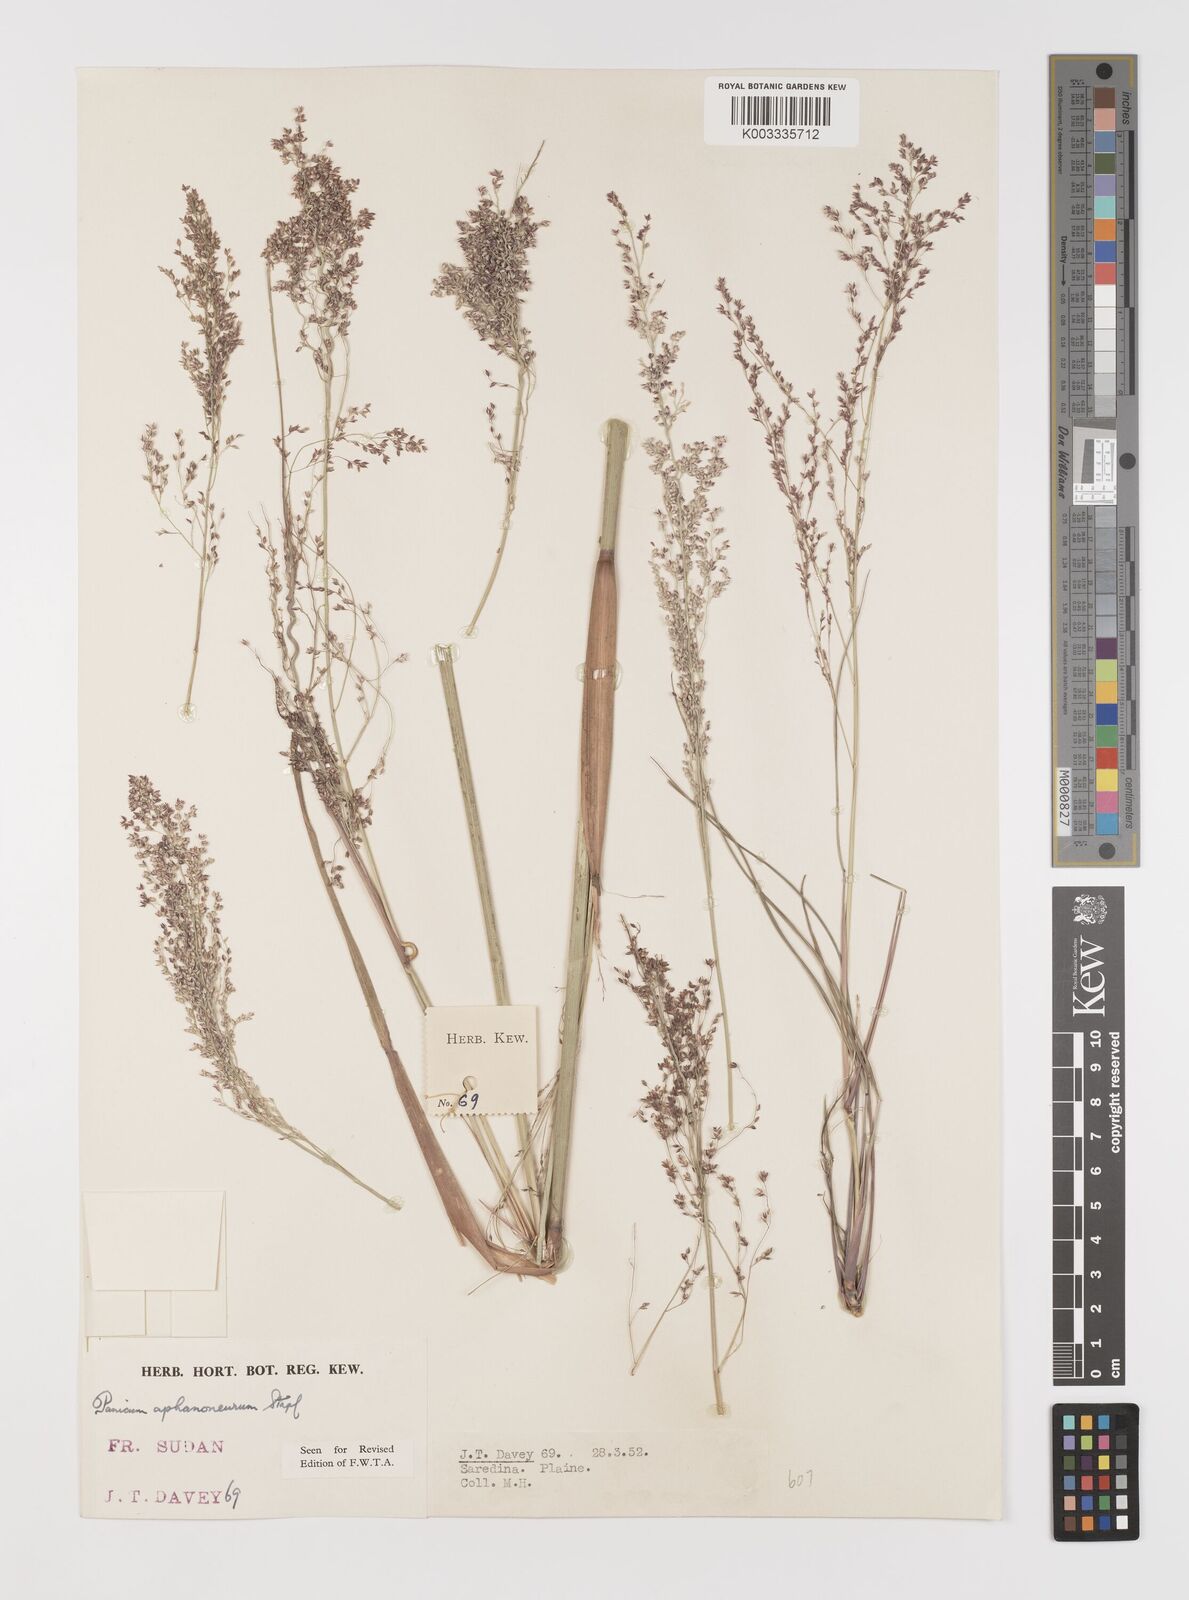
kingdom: Plantae
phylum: Tracheophyta
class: Liliopsida
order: Poales
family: Poaceae
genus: Panicum
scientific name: Panicum fluviicola
